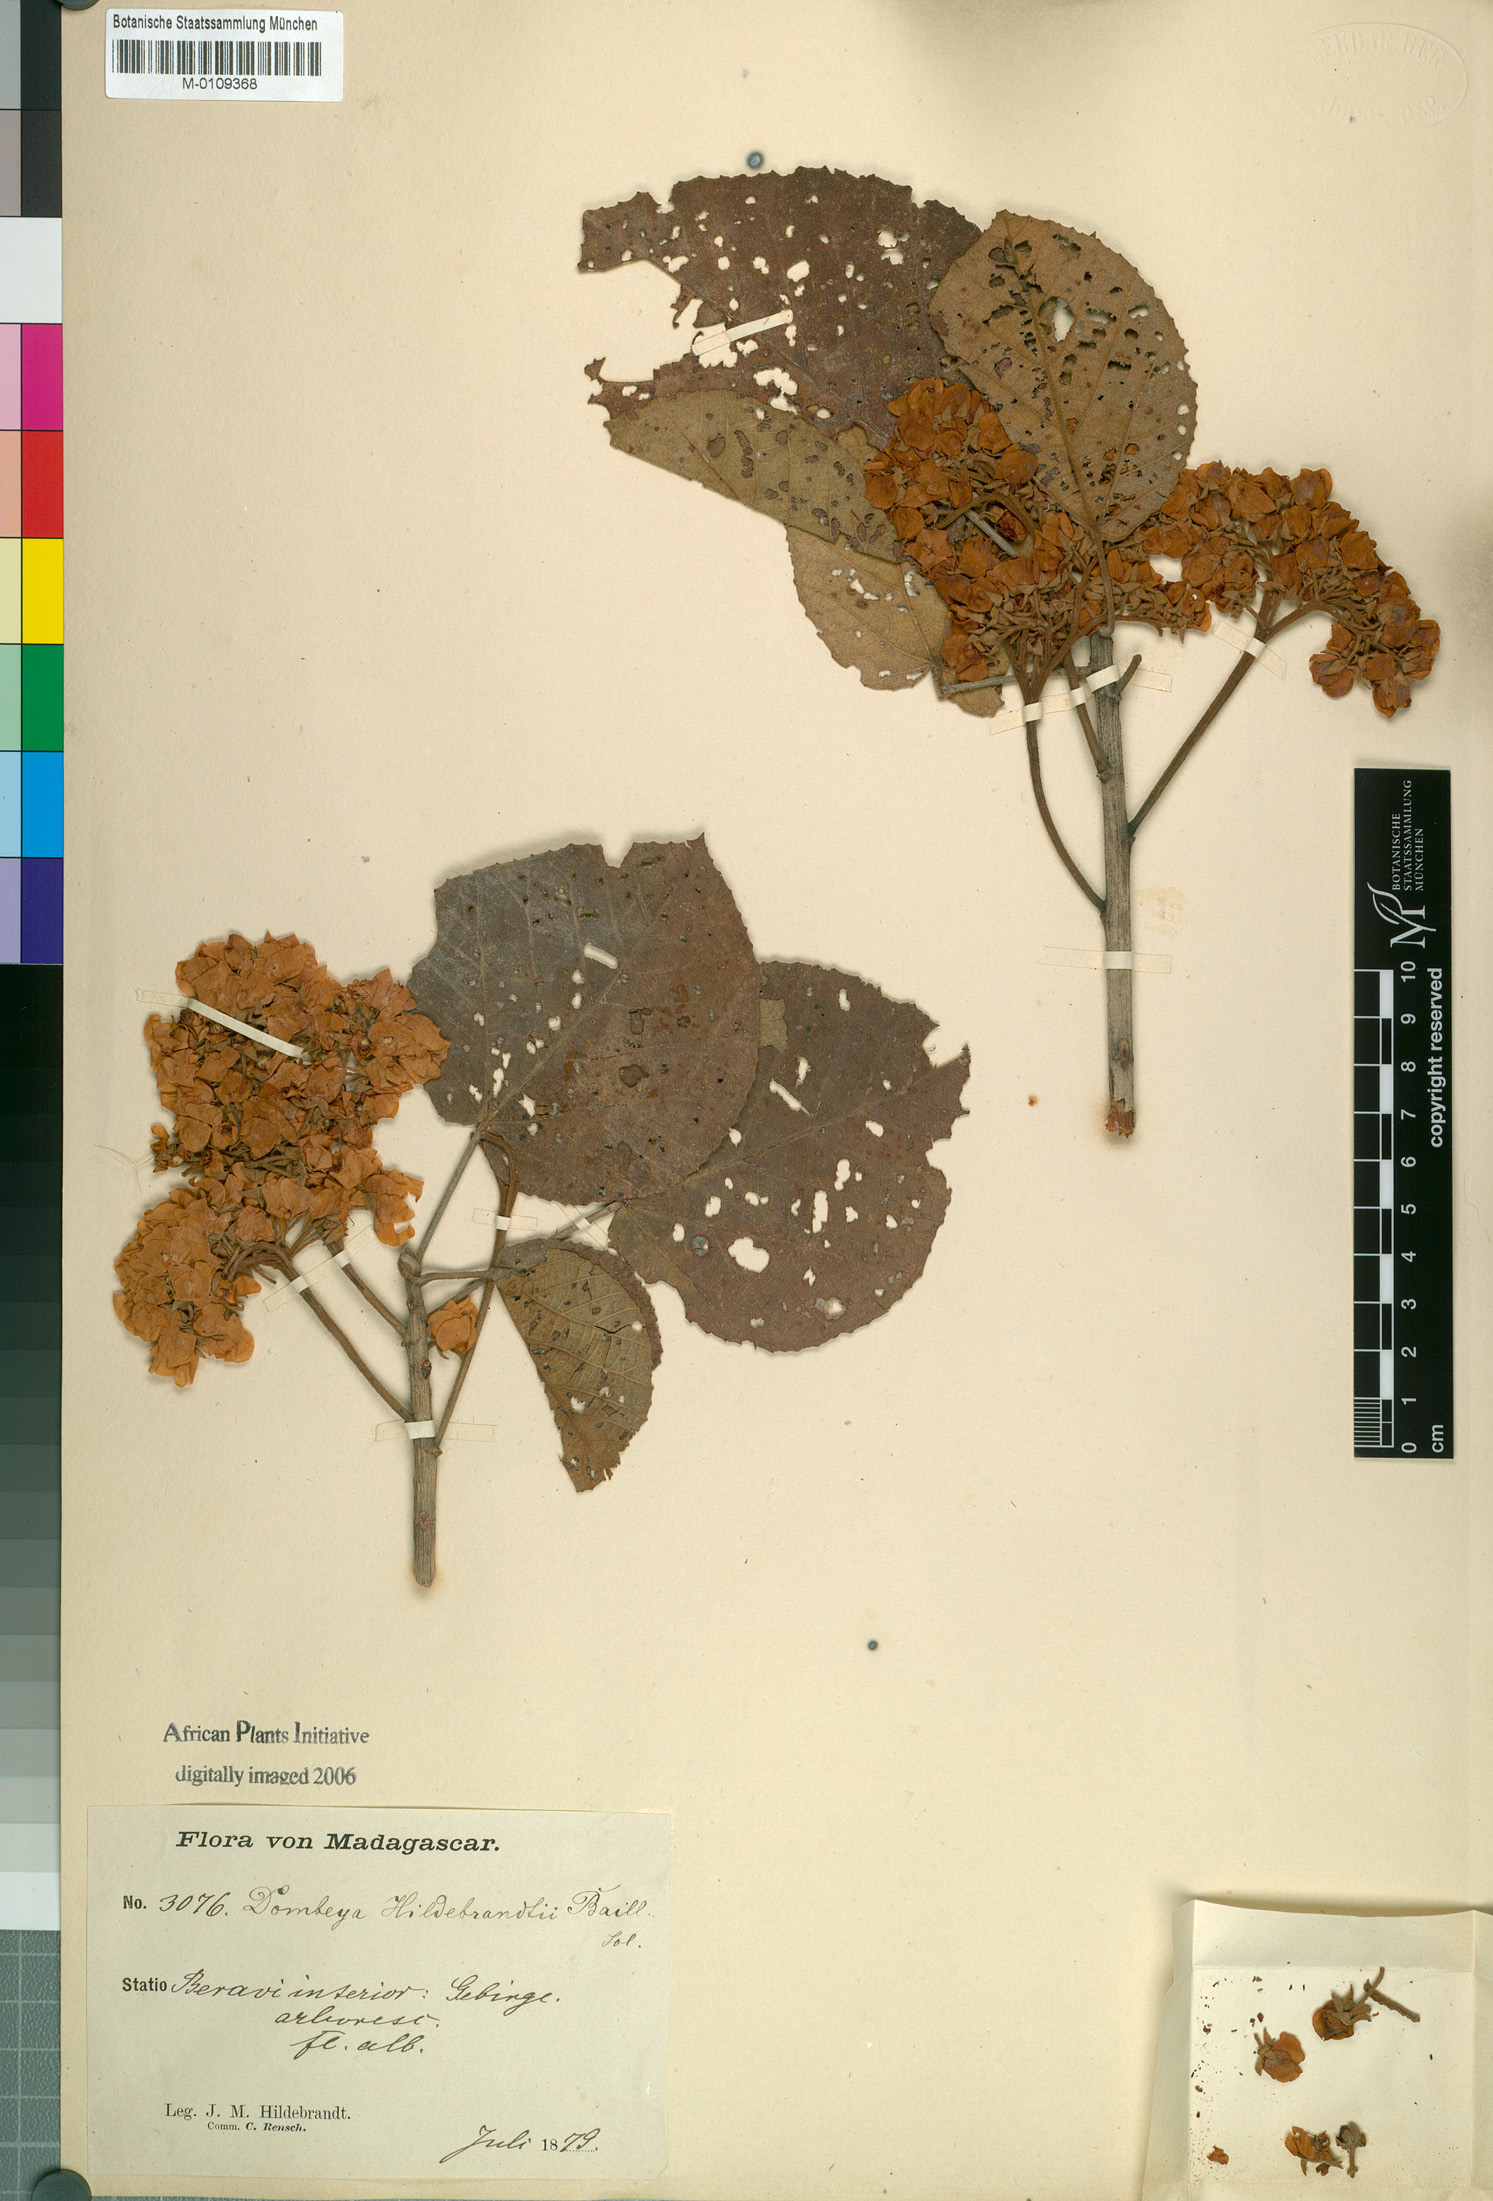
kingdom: Plantae
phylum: Tracheophyta
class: Magnoliopsida
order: Malvales
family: Malvaceae
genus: Dombeya
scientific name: Dombeya hildebrandtii
